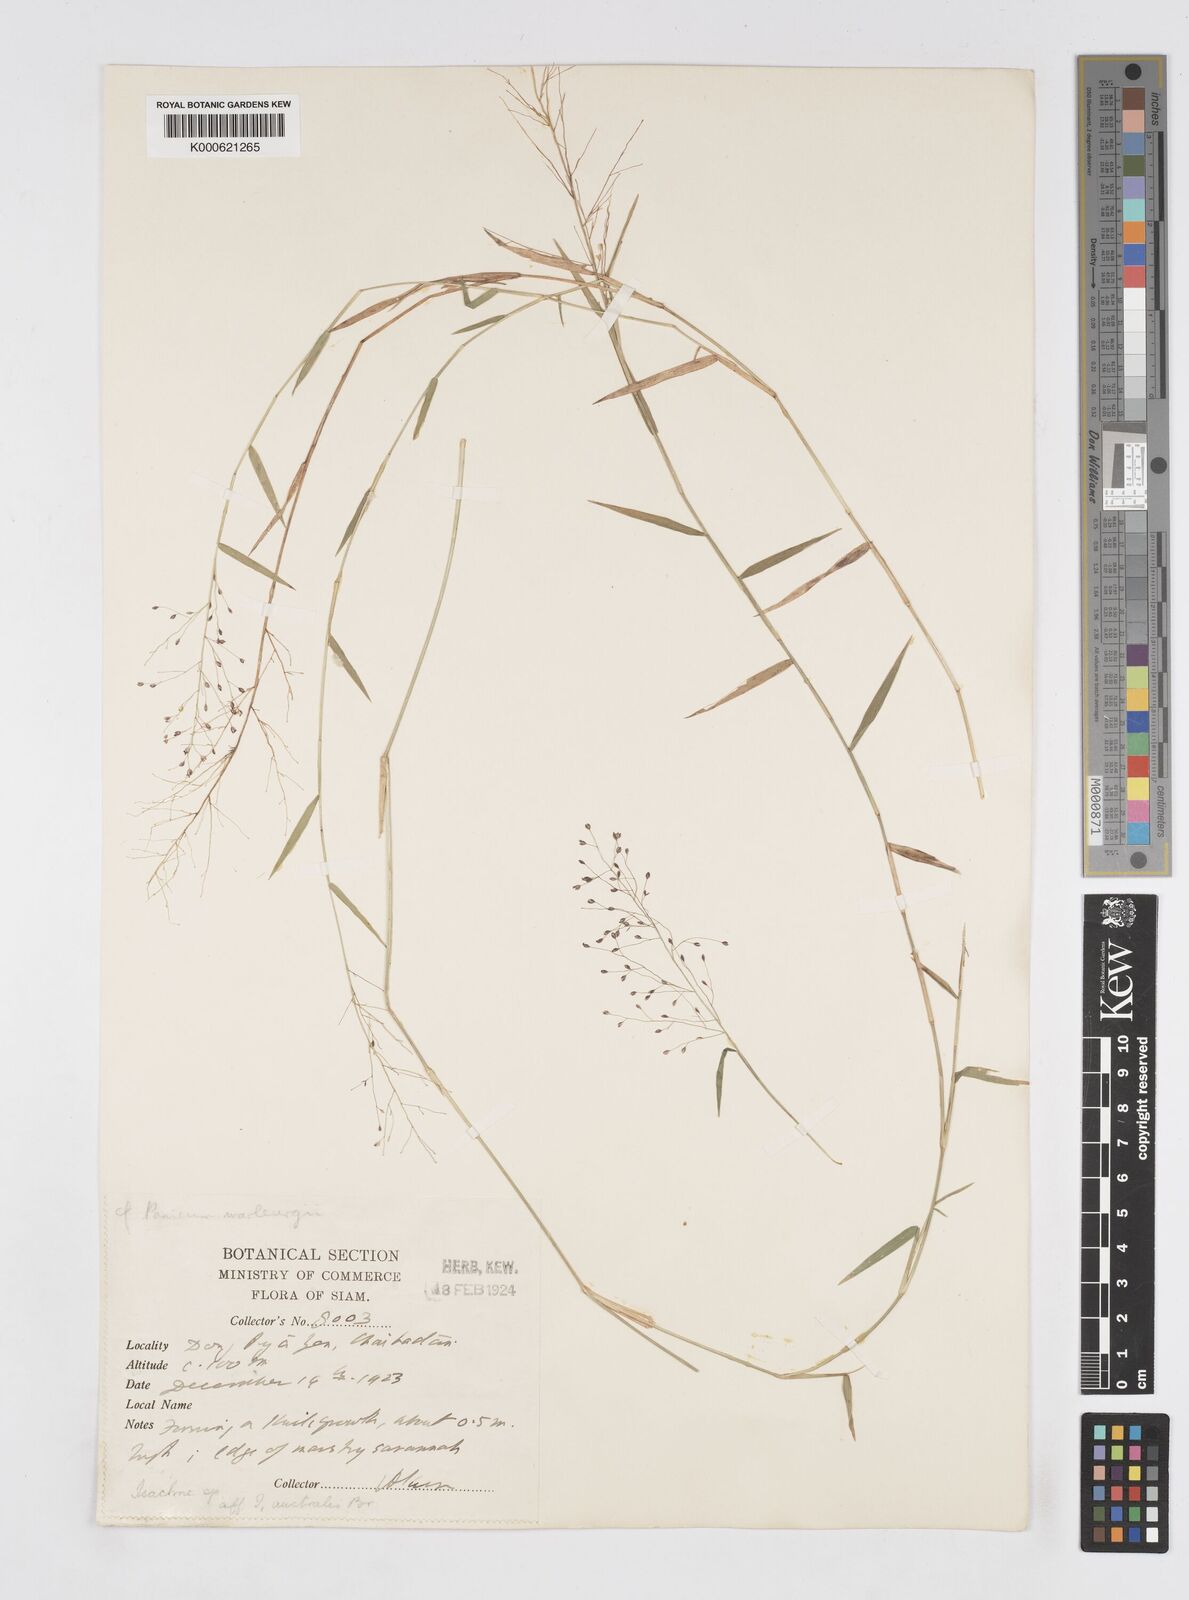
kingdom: Plantae
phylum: Tracheophyta
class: Liliopsida
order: Poales
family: Poaceae
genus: Isachne
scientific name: Isachne globosa
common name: Swamp millet
